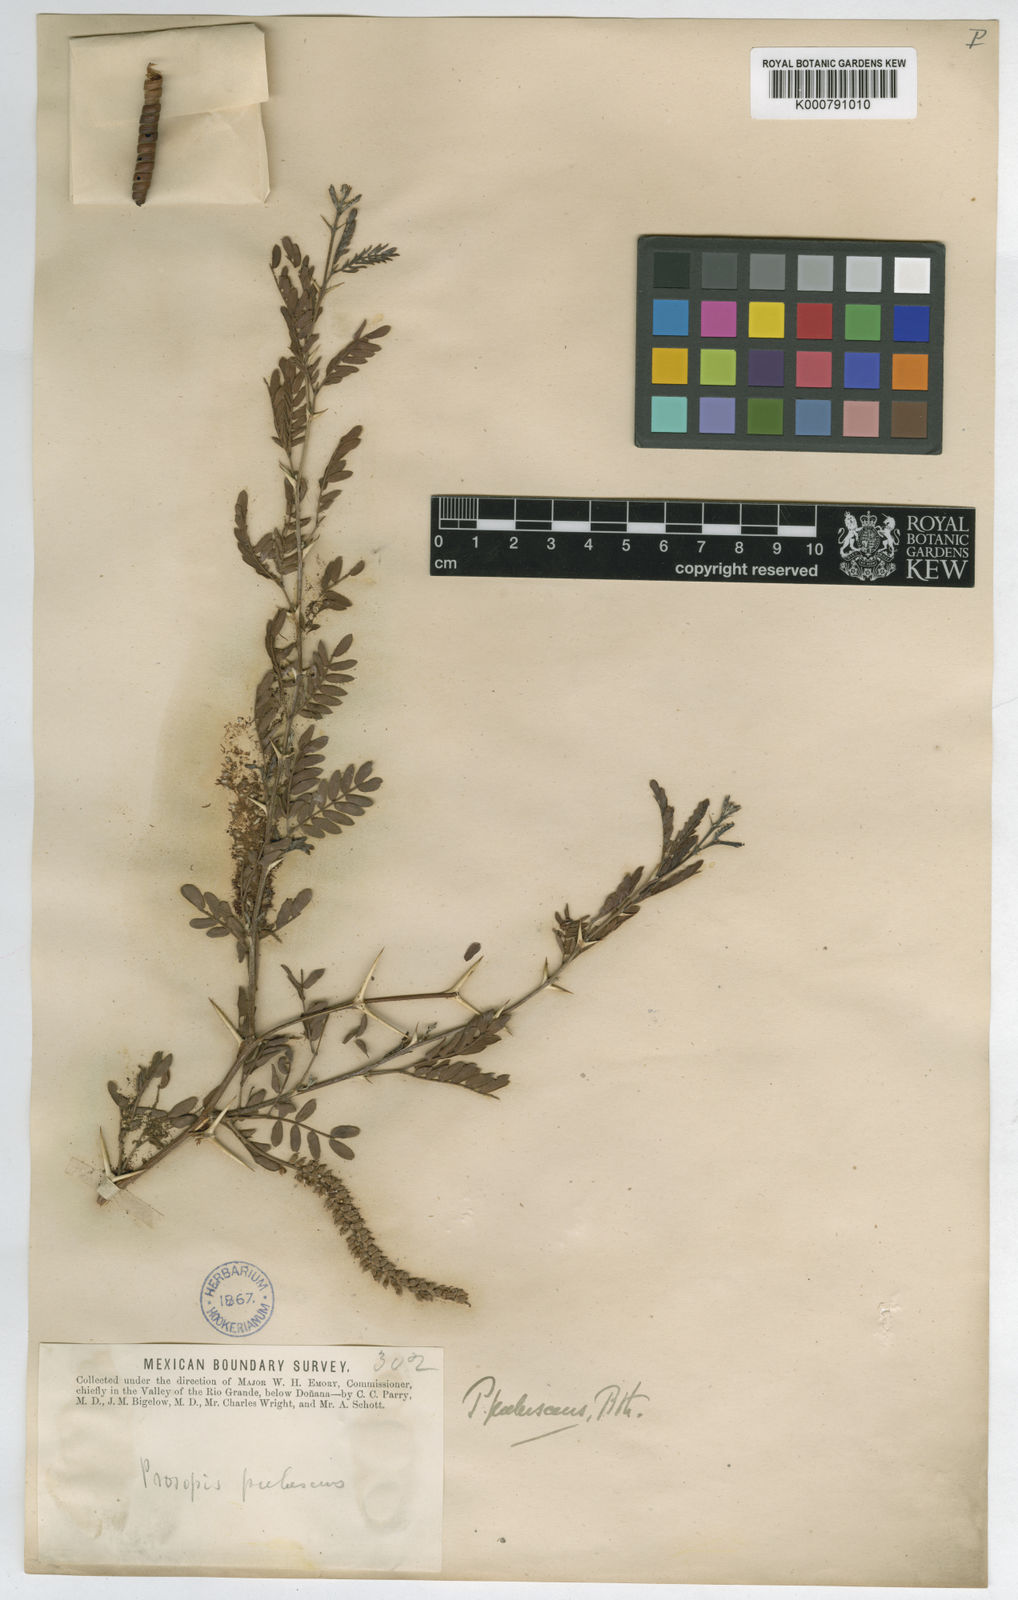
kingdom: Plantae
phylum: Tracheophyta
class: Magnoliopsida
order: Fabales
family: Fabaceae
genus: Prosopis
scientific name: Prosopis
